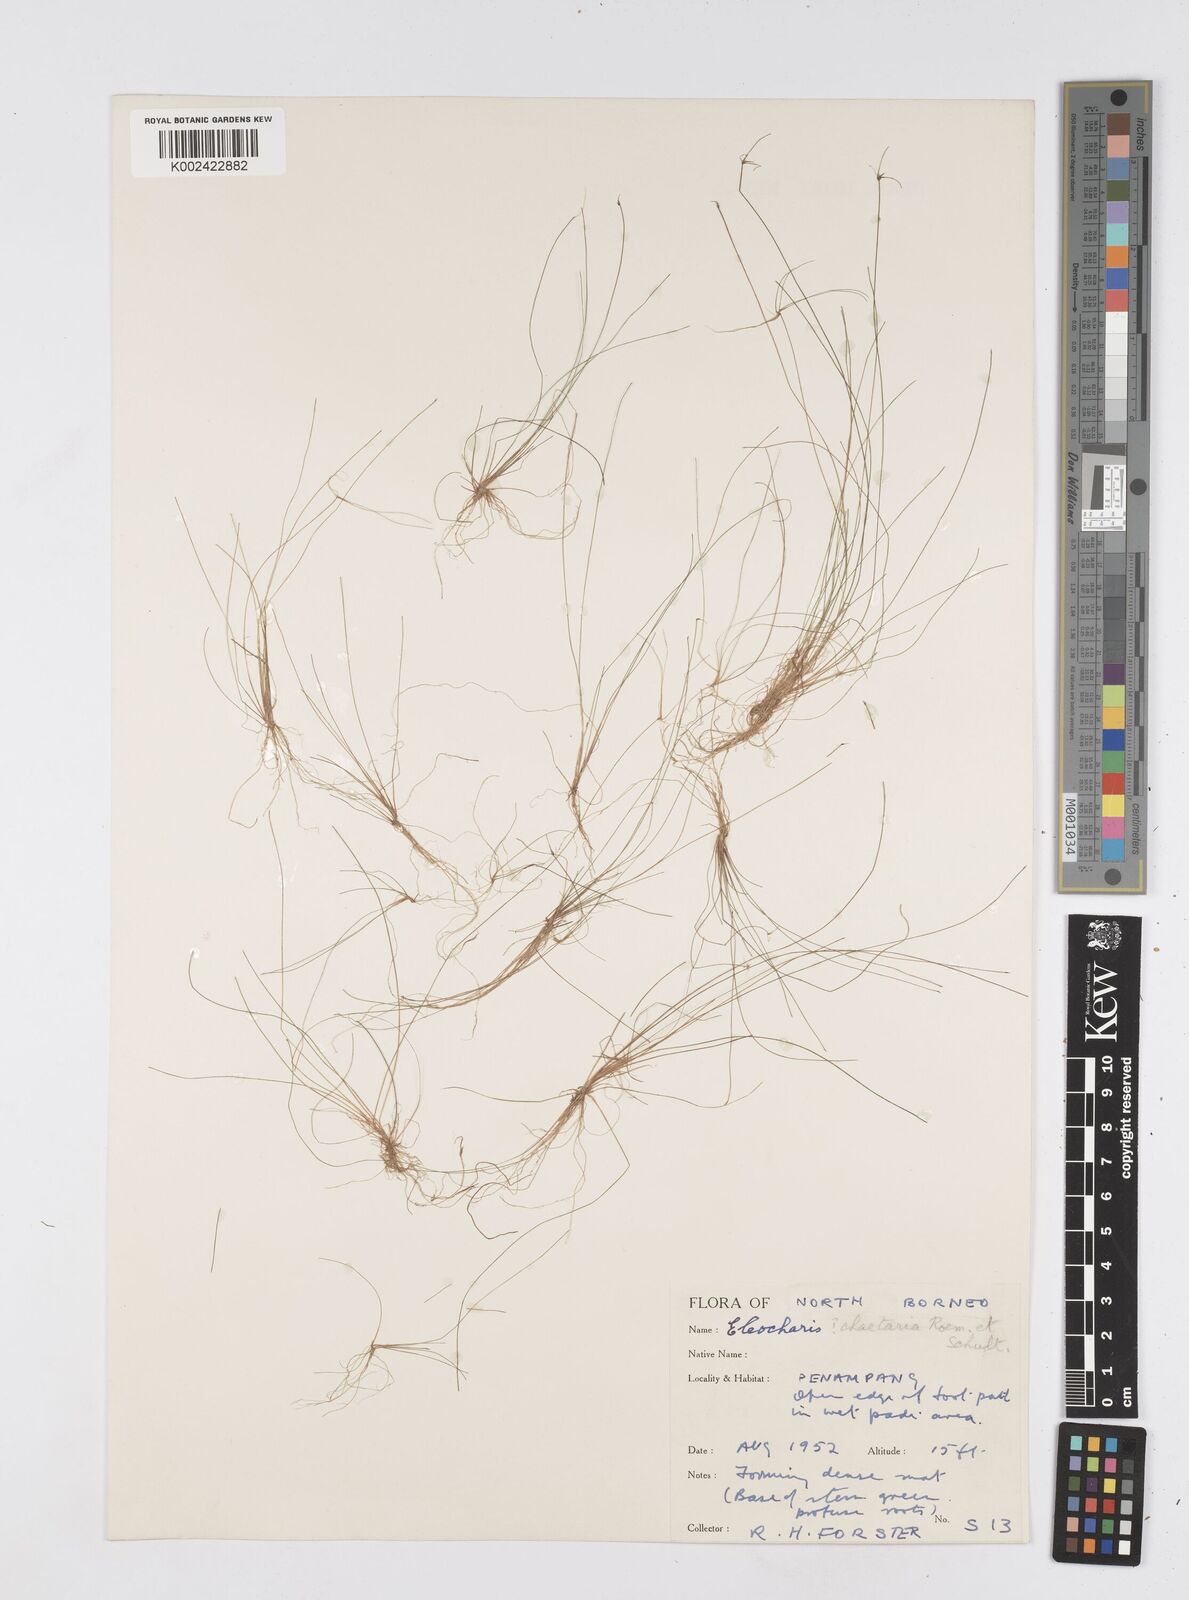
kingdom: Plantae
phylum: Tracheophyta
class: Liliopsida
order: Poales
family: Cyperaceae
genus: Eleocharis
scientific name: Eleocharis retroflexa
